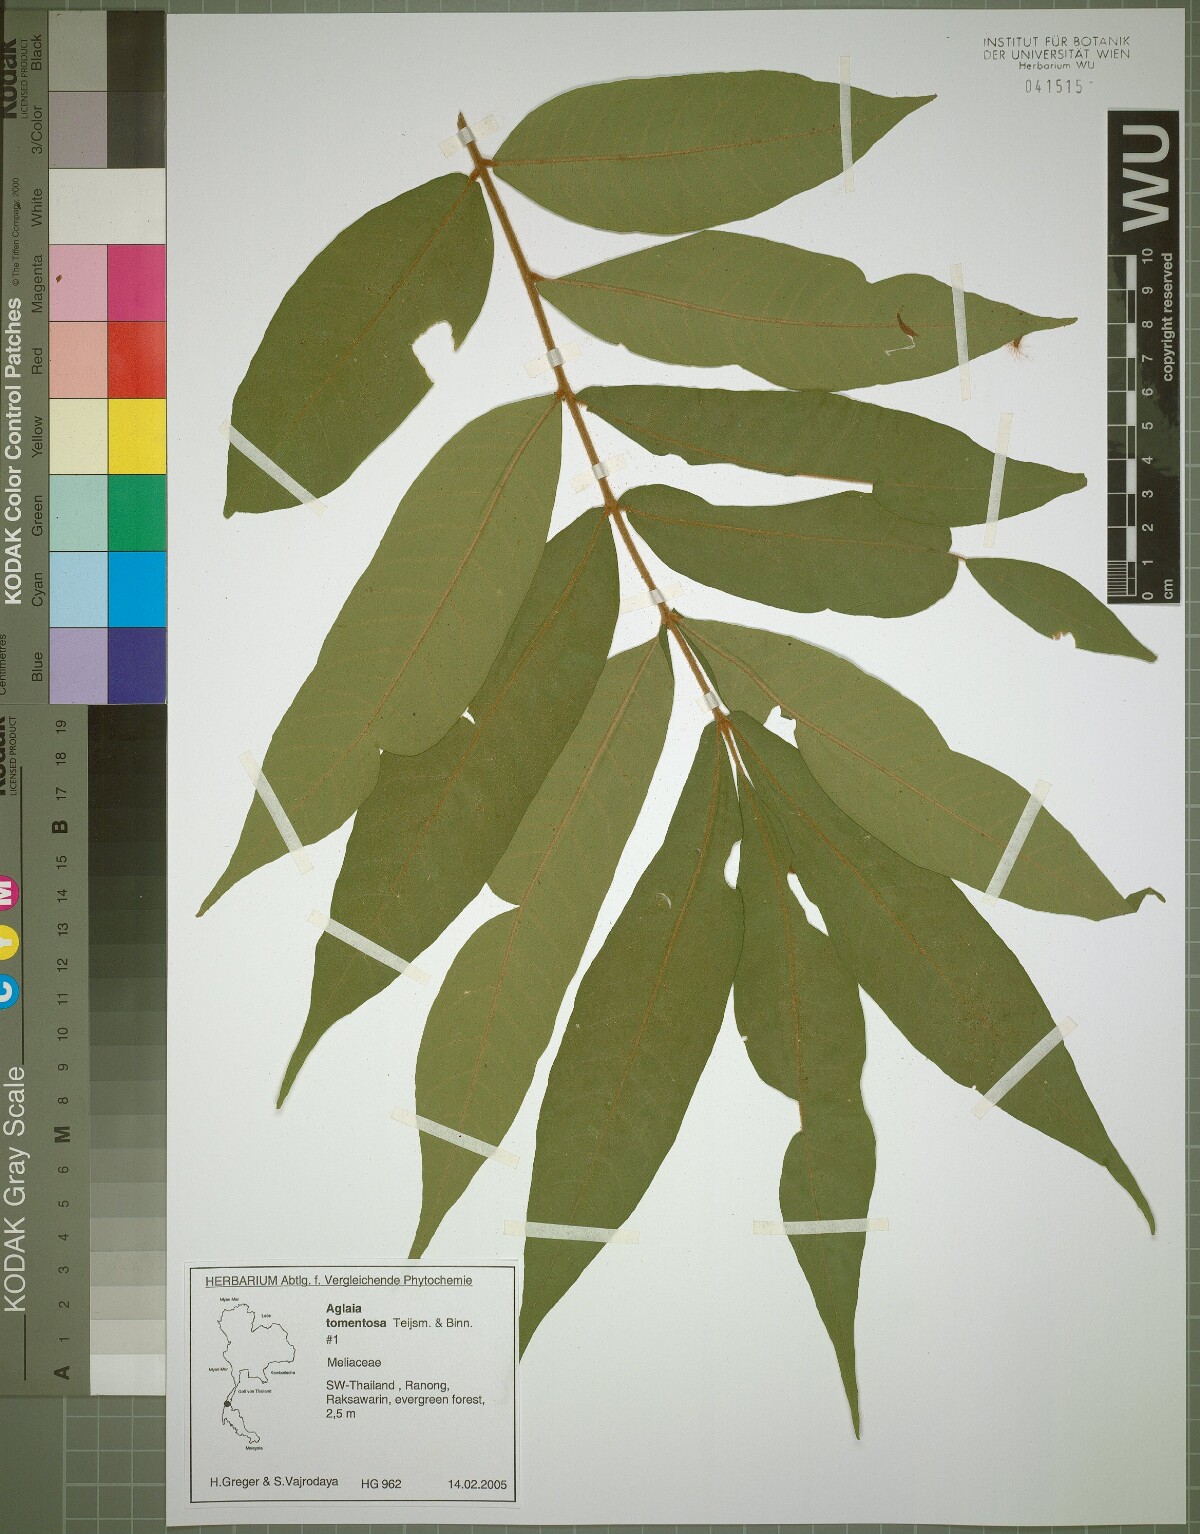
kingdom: Plantae
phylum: Tracheophyta
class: Magnoliopsida
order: Sapindales
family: Meliaceae
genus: Aglaia
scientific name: Aglaia tomentosa
